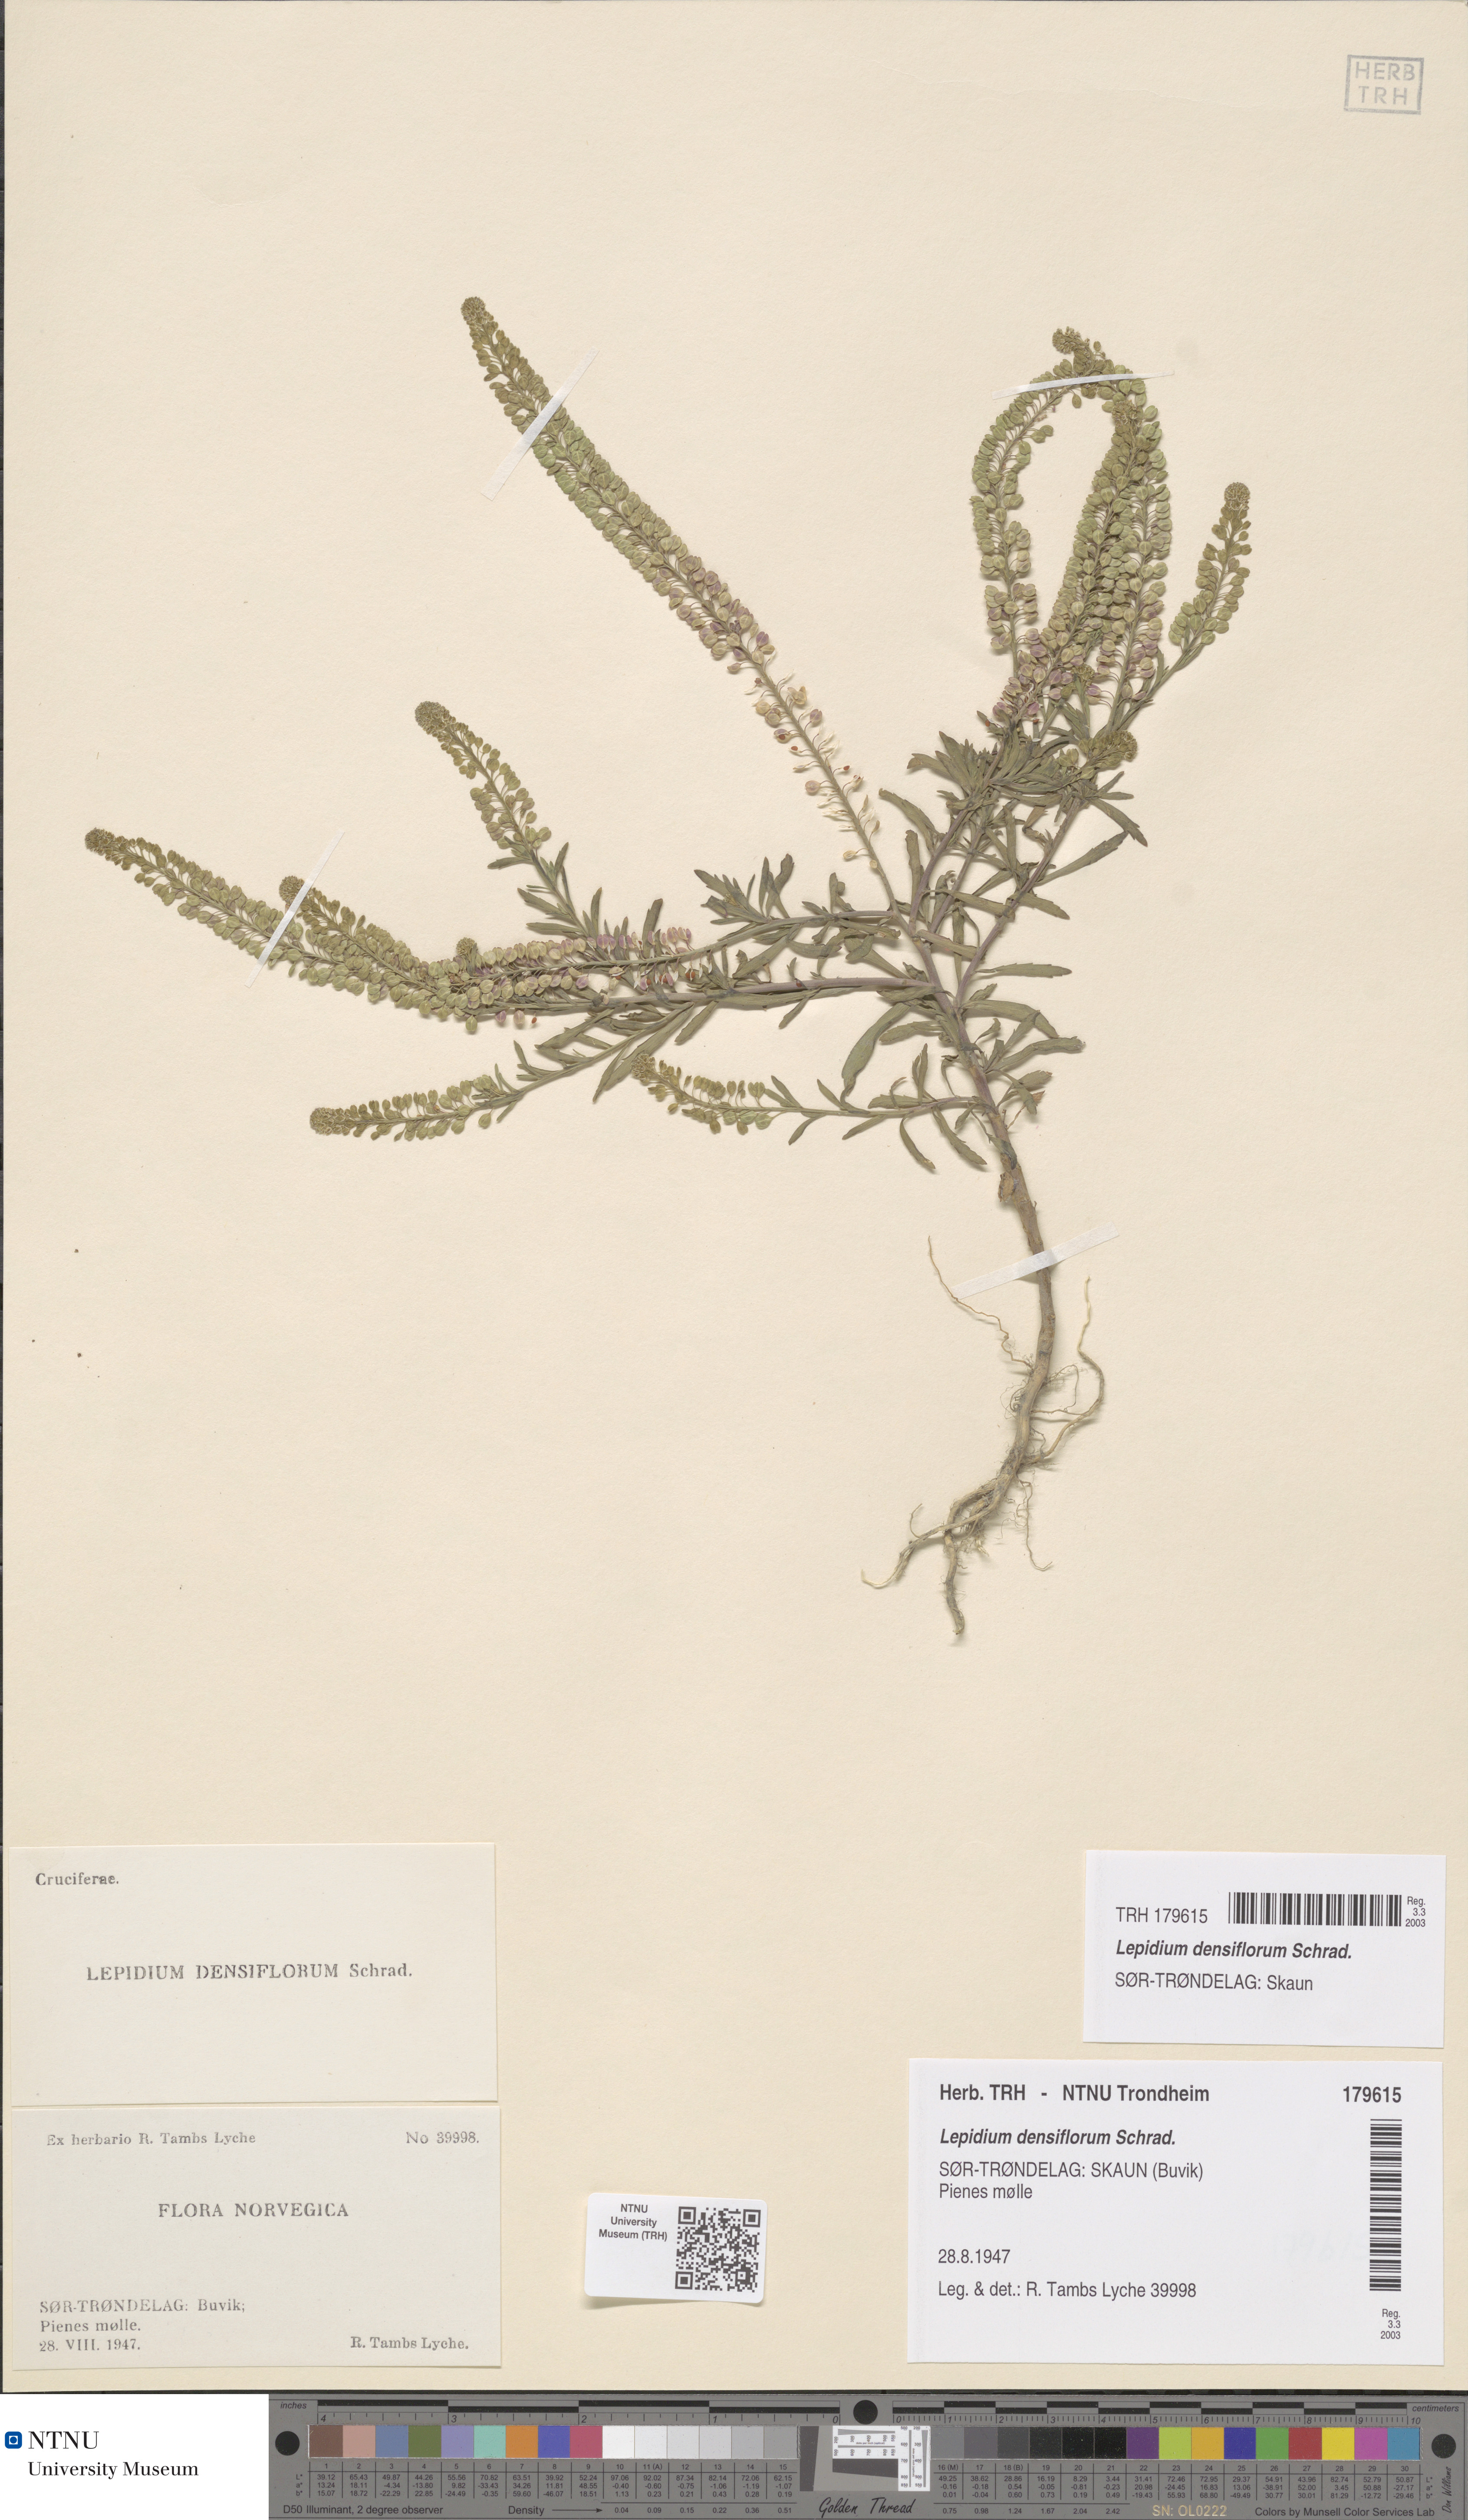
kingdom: Plantae
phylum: Tracheophyta
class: Magnoliopsida
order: Brassicales
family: Brassicaceae
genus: Lepidium
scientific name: Lepidium densiflorum
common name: Miner's pepperwort
